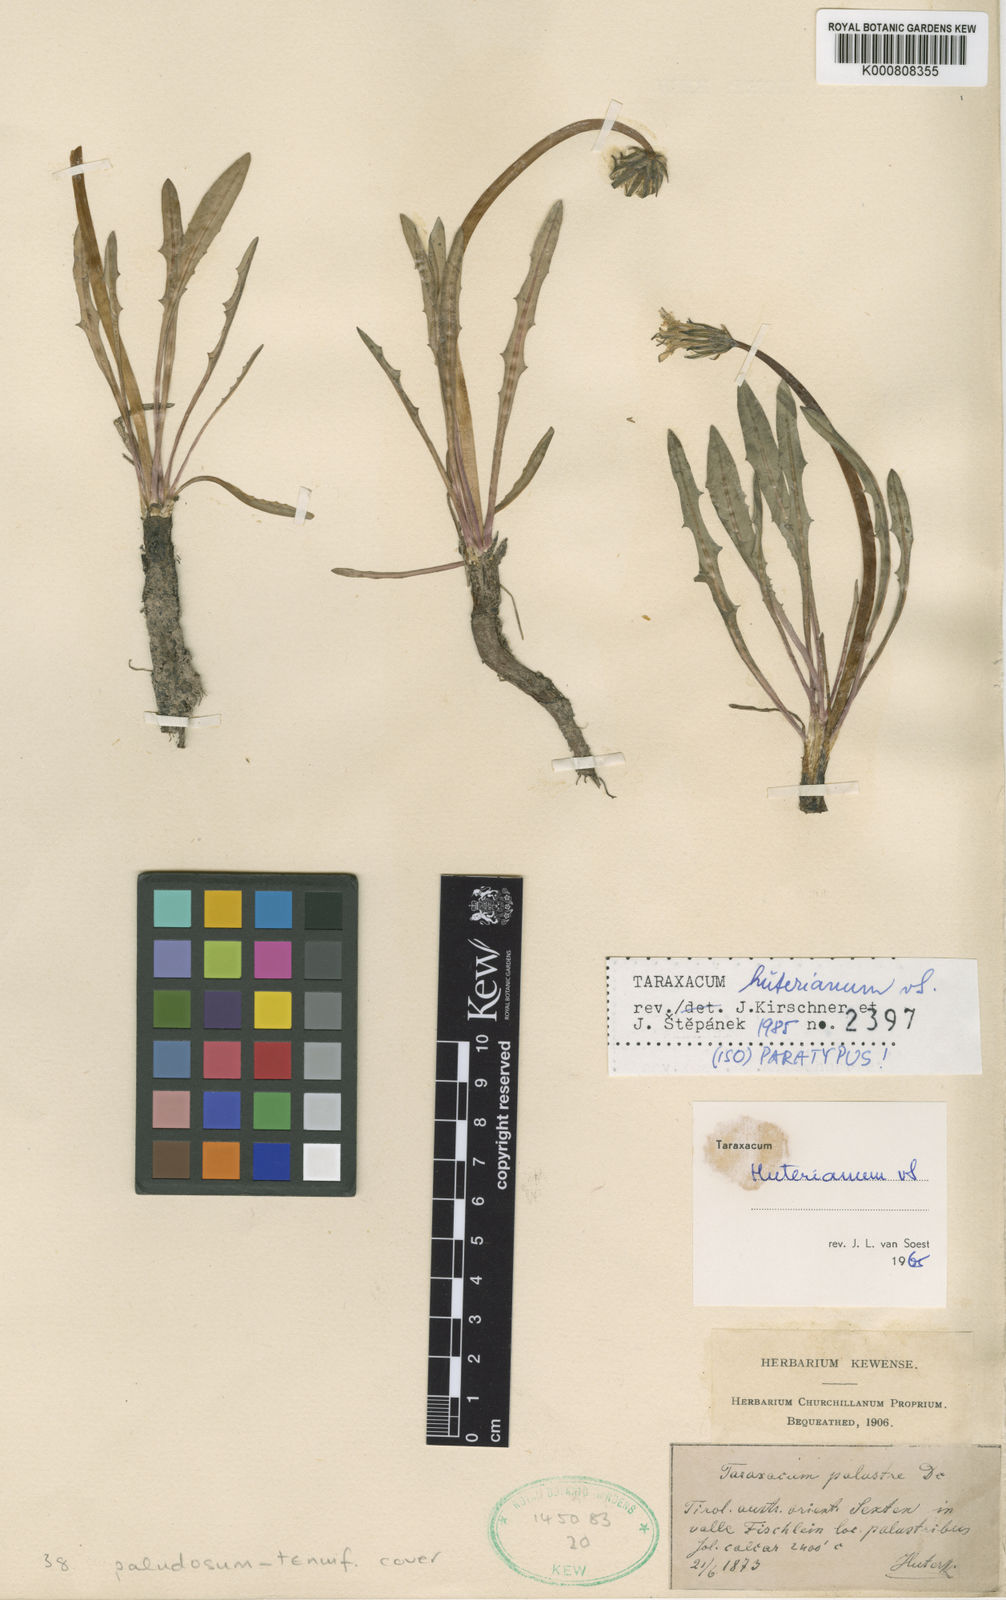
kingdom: Plantae
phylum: Tracheophyta
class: Magnoliopsida
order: Asterales
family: Asteraceae
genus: Taraxacum
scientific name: Taraxacum huterianum
